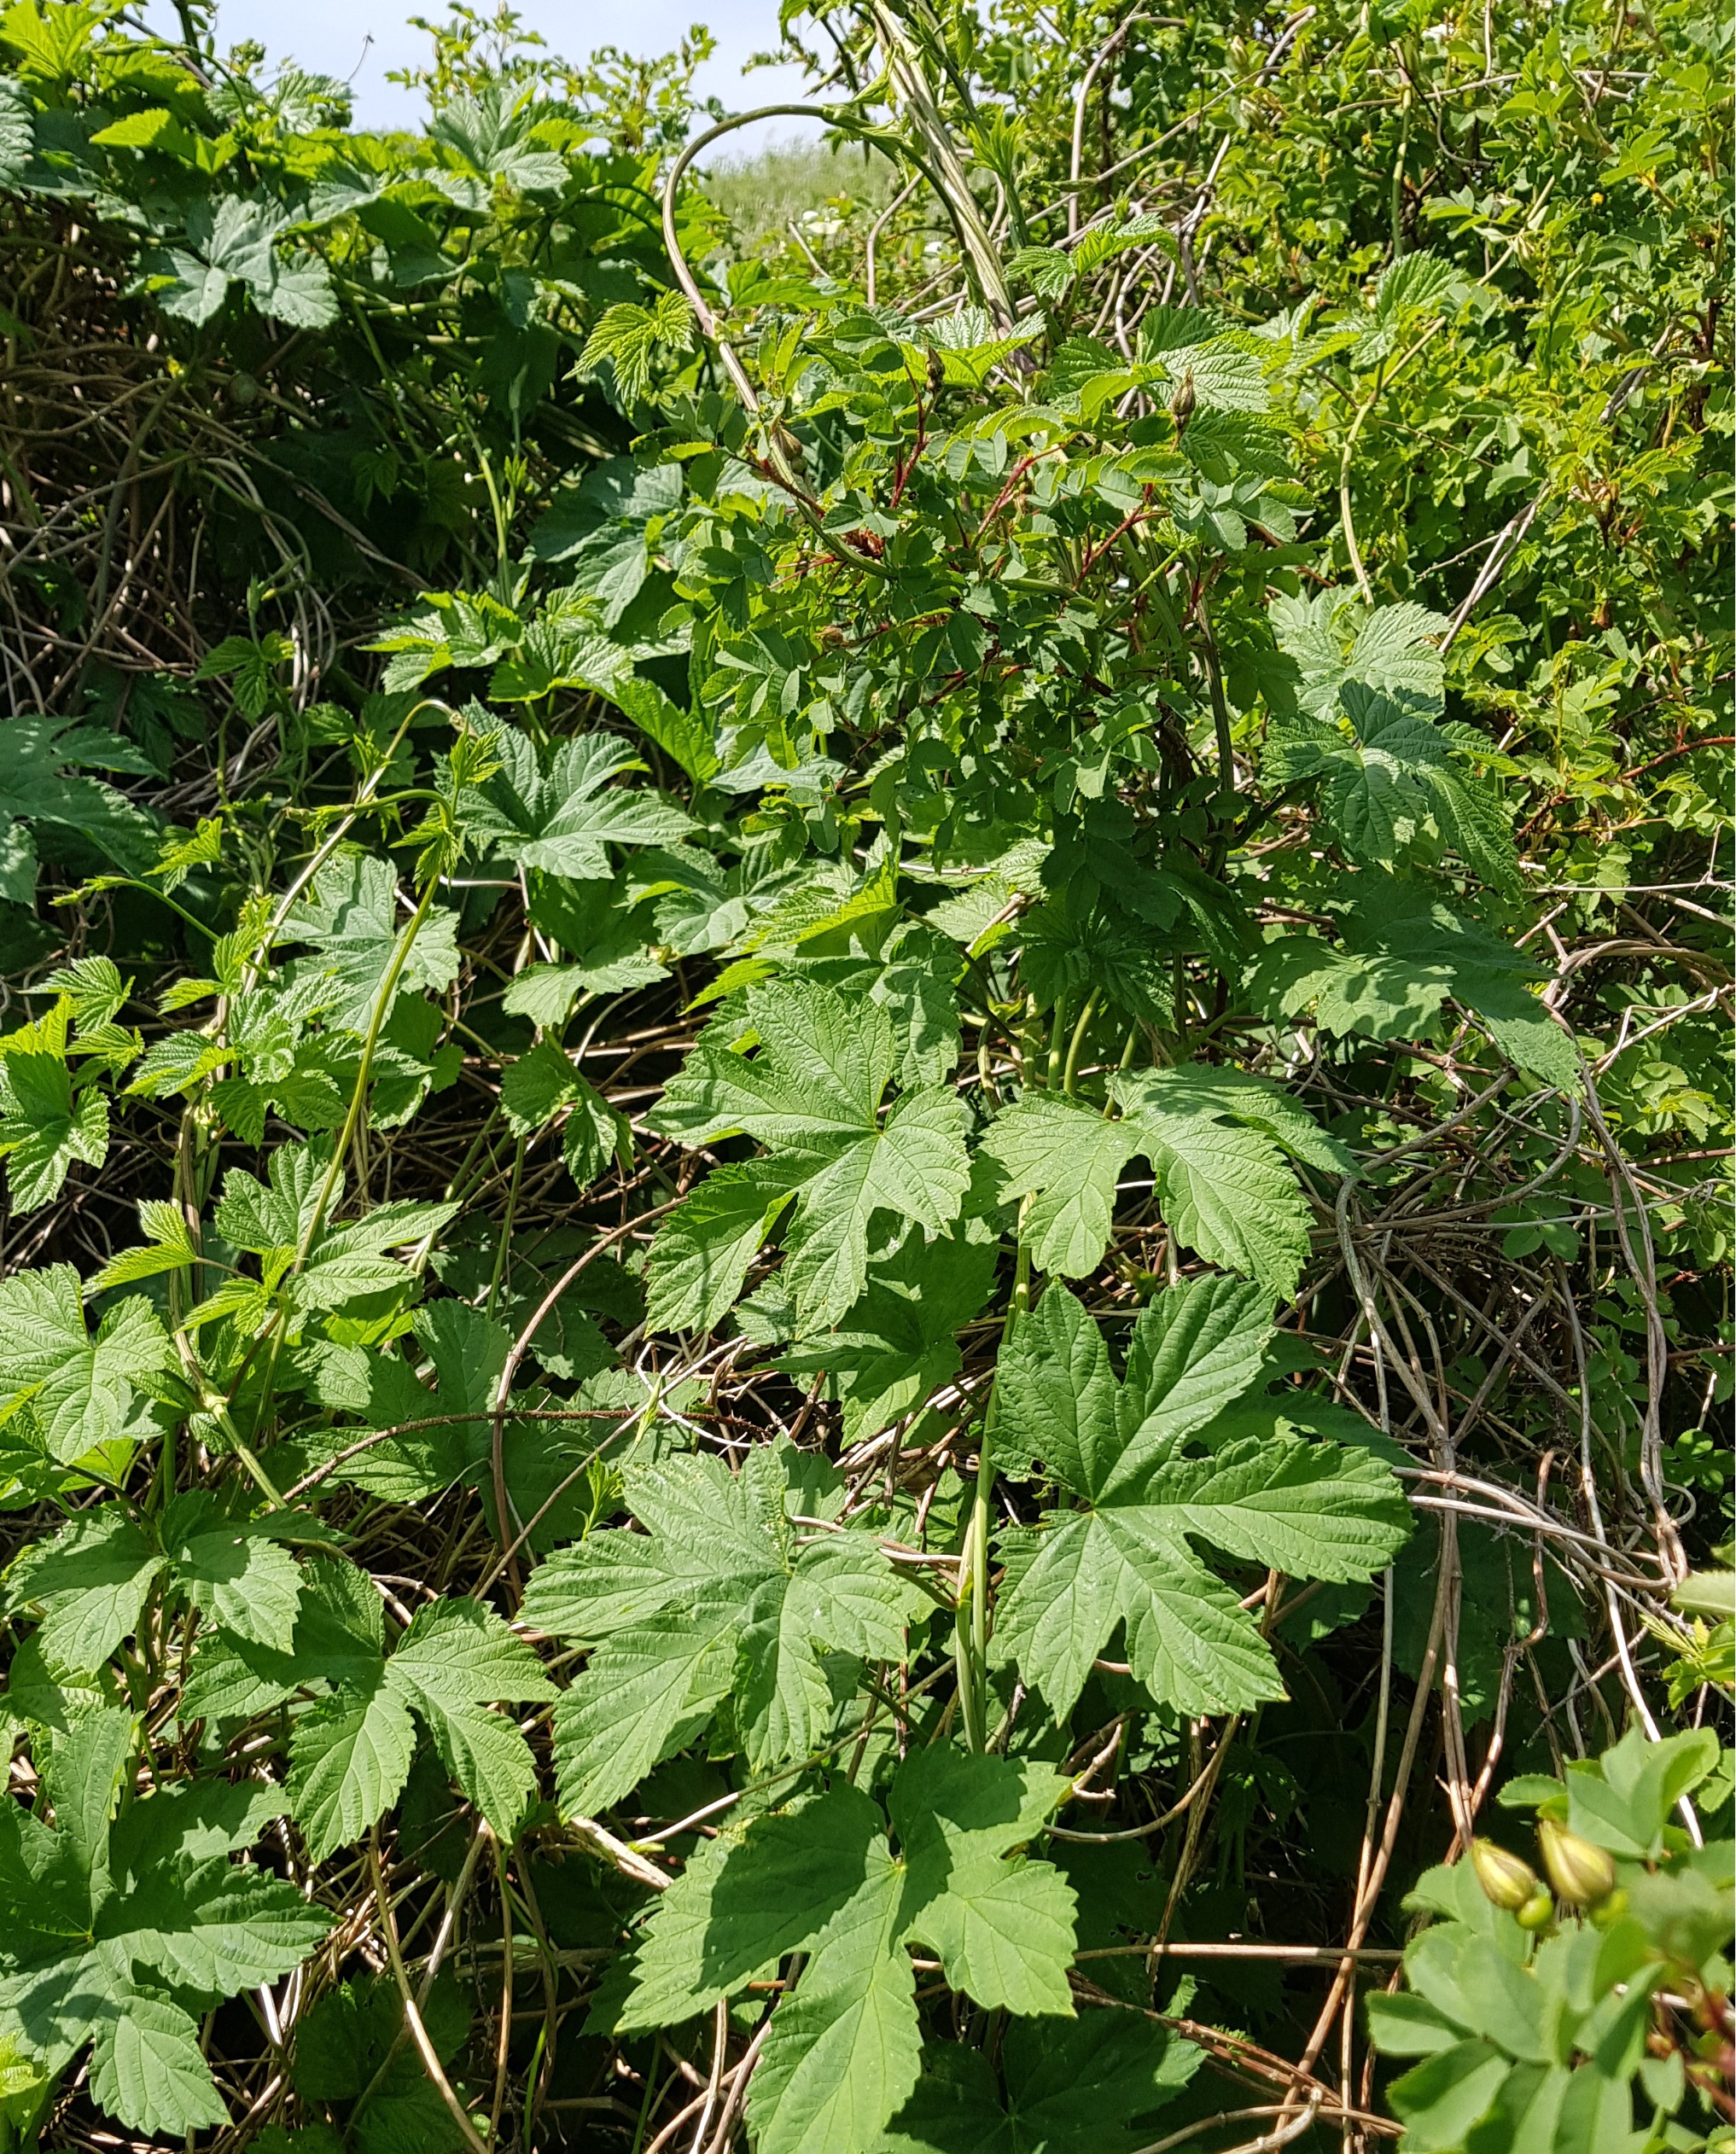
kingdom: Plantae
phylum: Tracheophyta
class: Magnoliopsida
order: Rosales
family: Cannabaceae
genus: Humulus
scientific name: Humulus lupulus
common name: Humle
